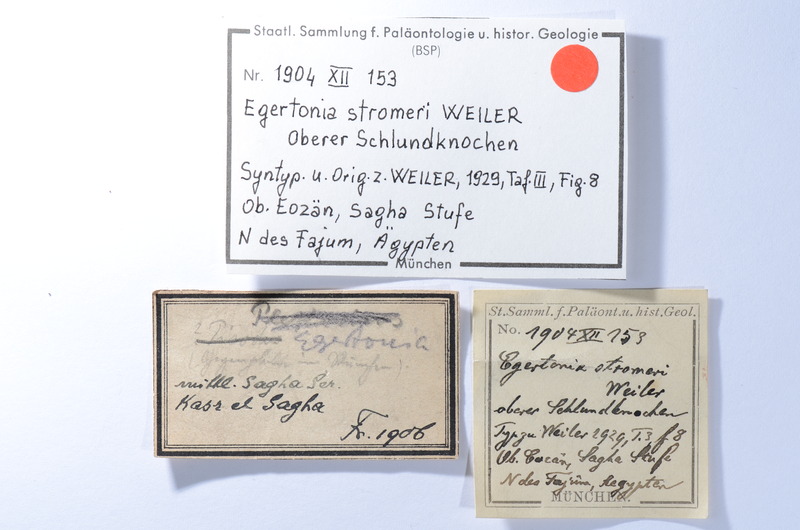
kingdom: Animalia
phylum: Chordata
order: Anguilliformes
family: Phyllodontidae
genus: Paralbula
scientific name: Paralbula Egertonia stromeri
